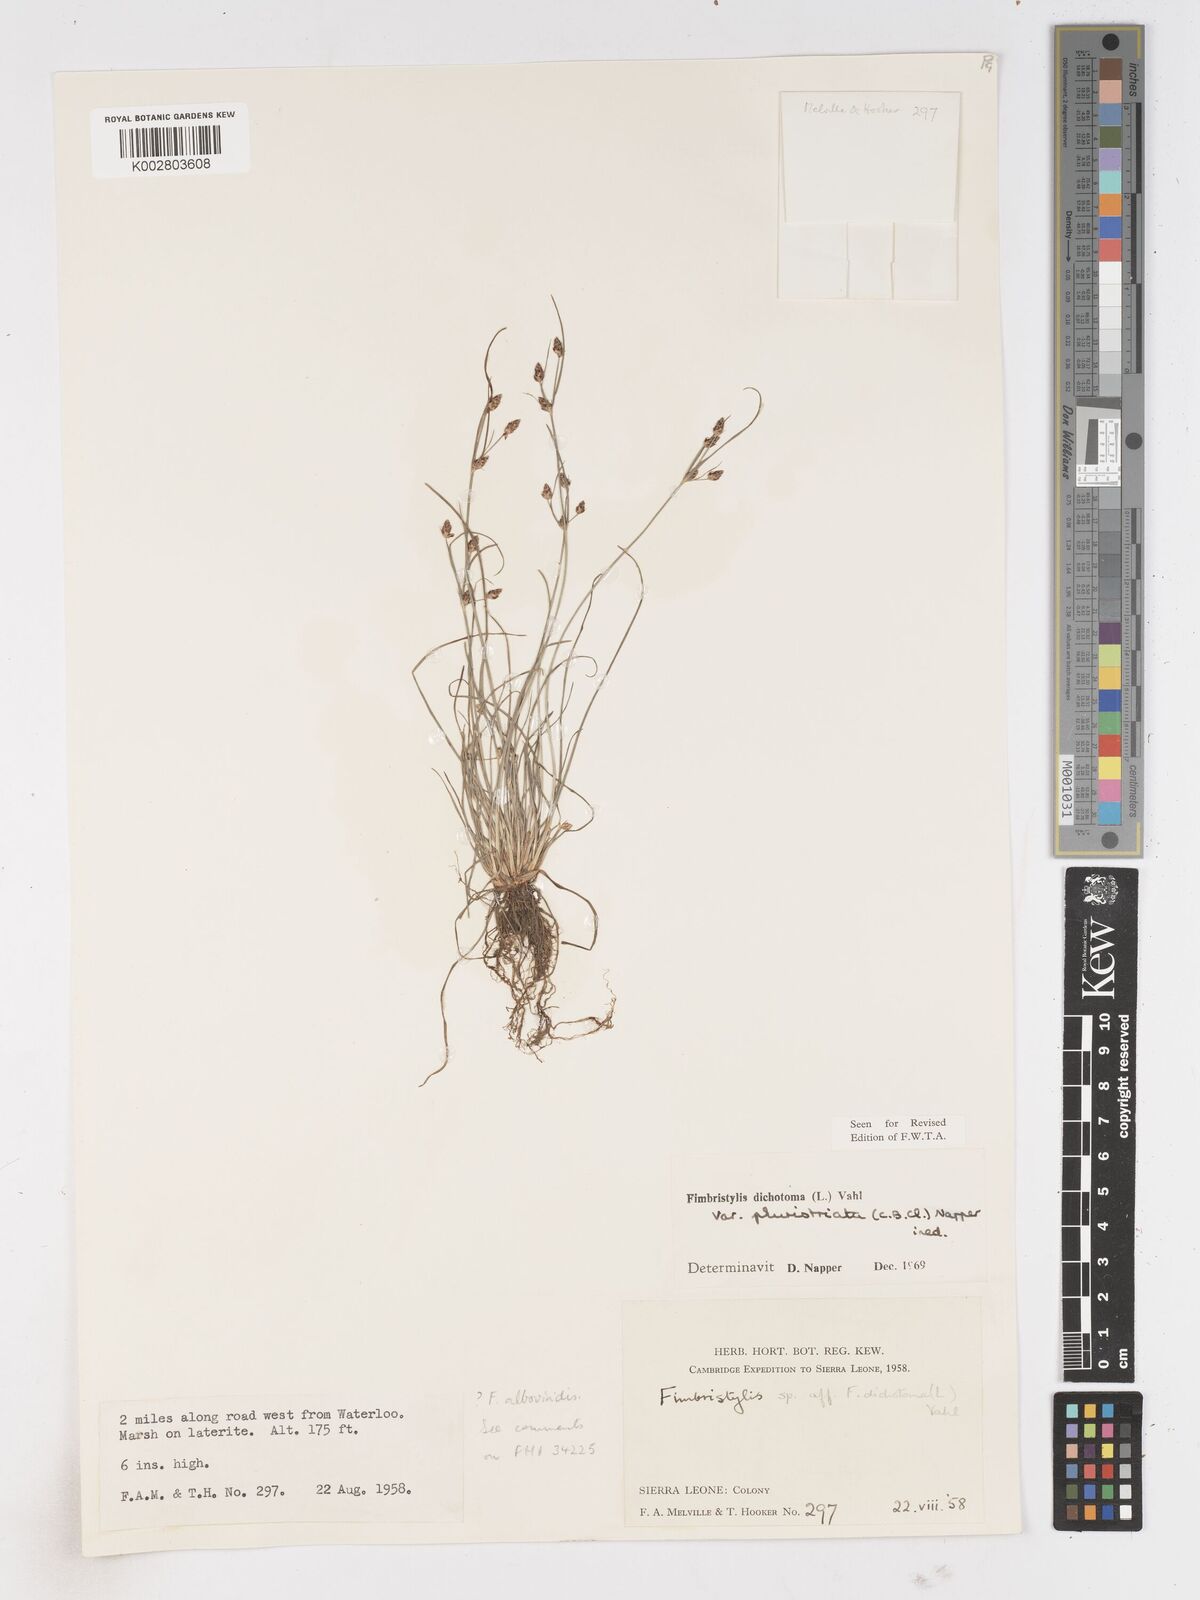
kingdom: Plantae
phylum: Tracheophyta
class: Liliopsida
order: Poales
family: Cyperaceae
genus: Fimbristylis
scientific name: Fimbristylis dichotoma
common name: Forked fimbry
